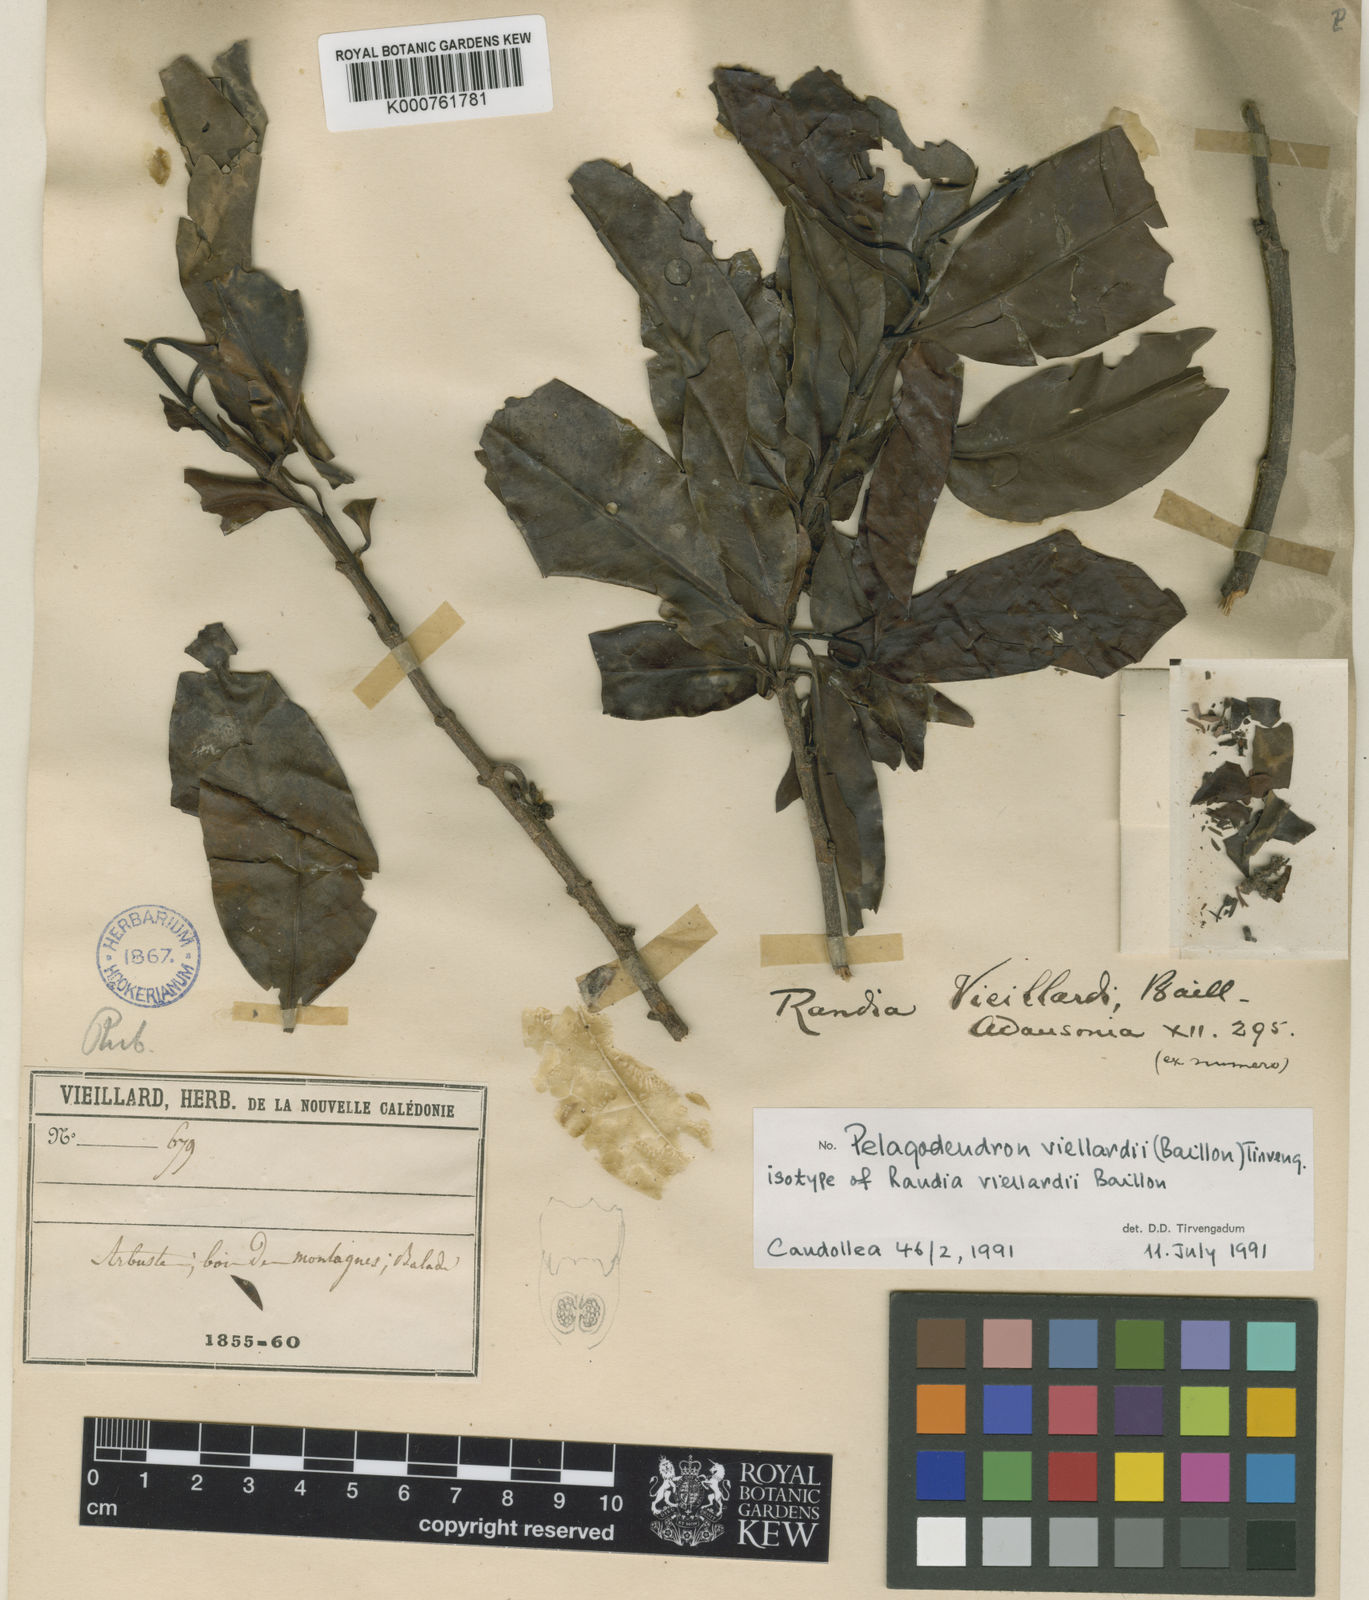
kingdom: Plantae
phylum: Tracheophyta
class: Magnoliopsida
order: Gentianales
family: Rubiaceae
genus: Aidia
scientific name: Aidia vieillardii
